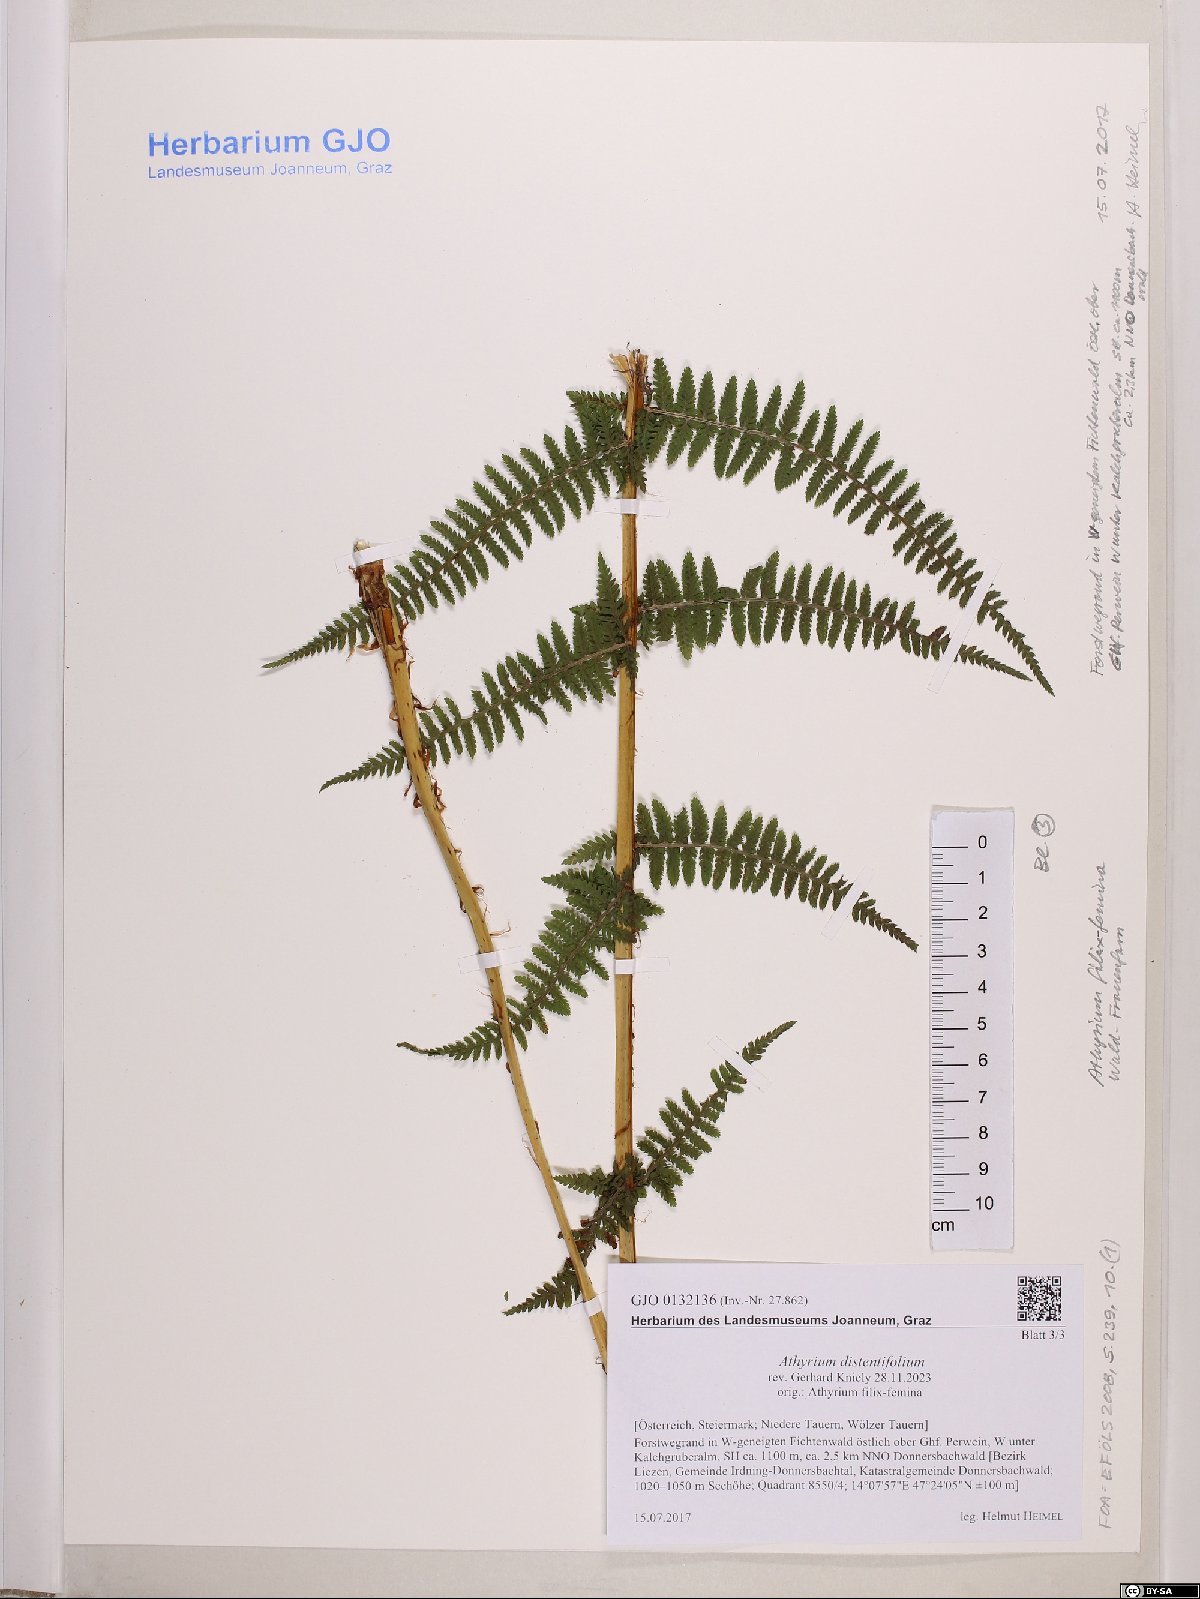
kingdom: Plantae
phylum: Tracheophyta
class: Polypodiopsida
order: Polypodiales
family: Athyriaceae
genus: Pseudathyrium
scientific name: Pseudathyrium alpestre
